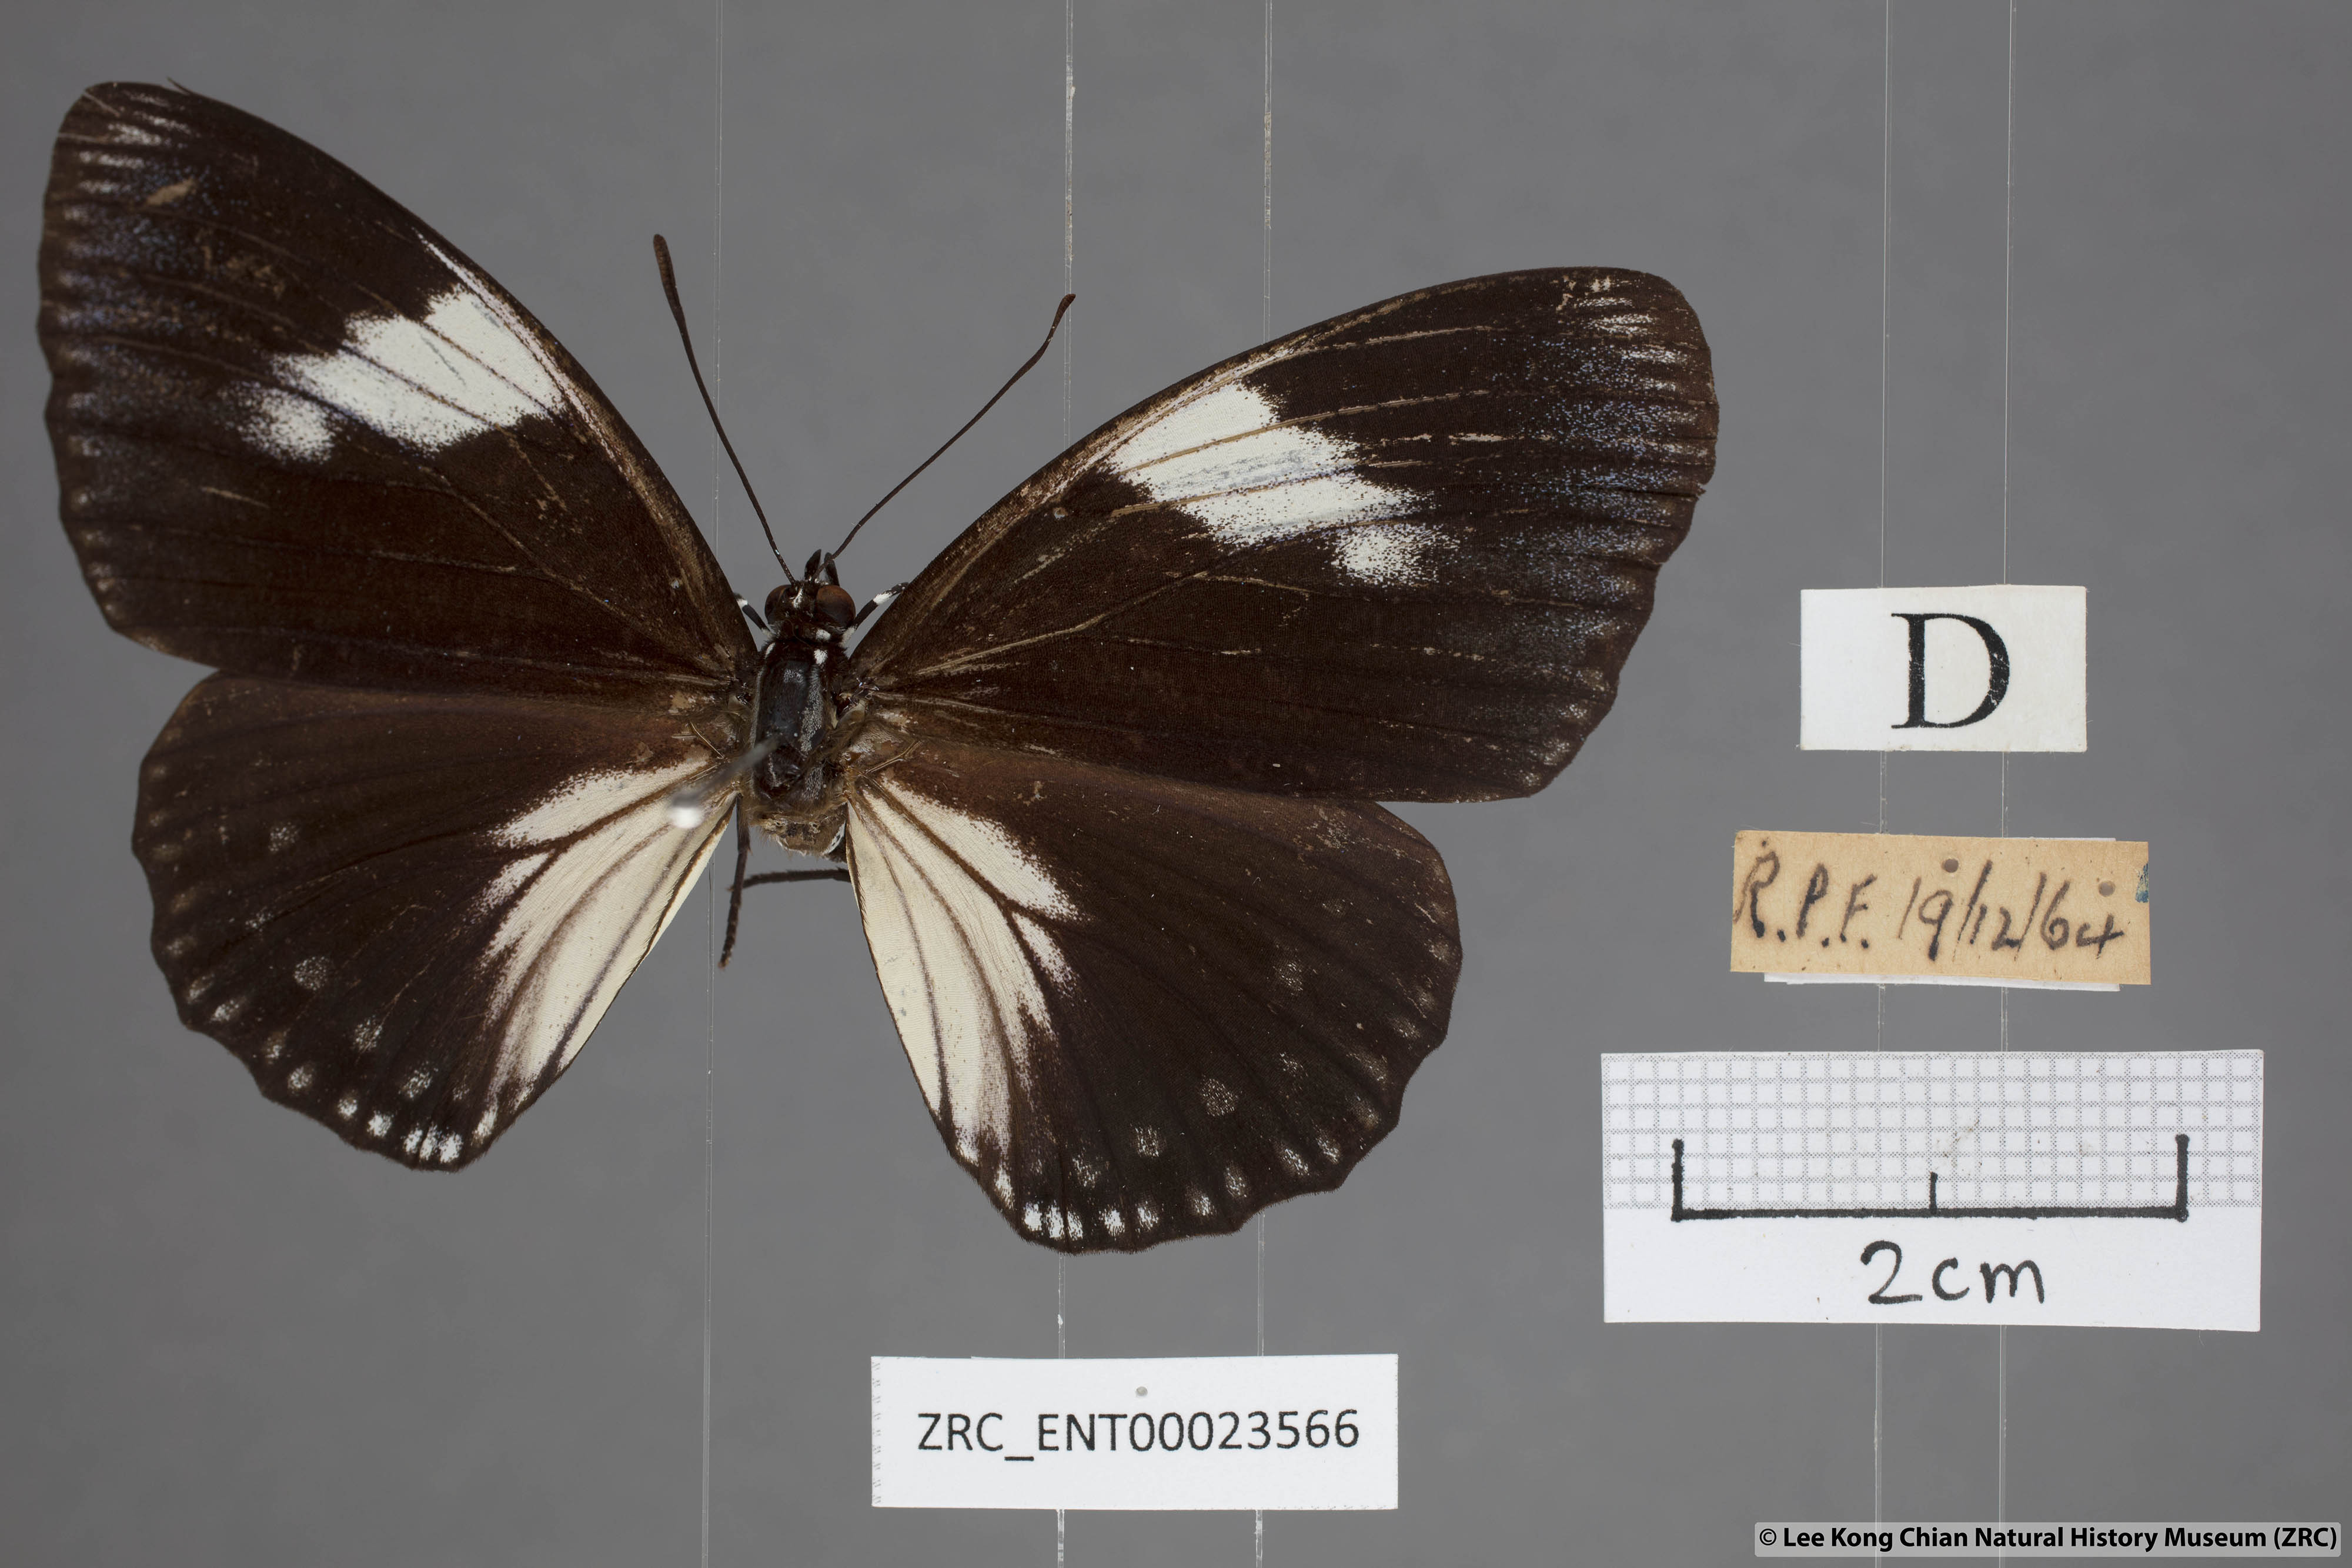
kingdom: Animalia
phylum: Arthropoda
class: Insecta
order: Lepidoptera
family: Nymphalidae
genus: Euripus
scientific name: Euripus nyctelius
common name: Courtesan
